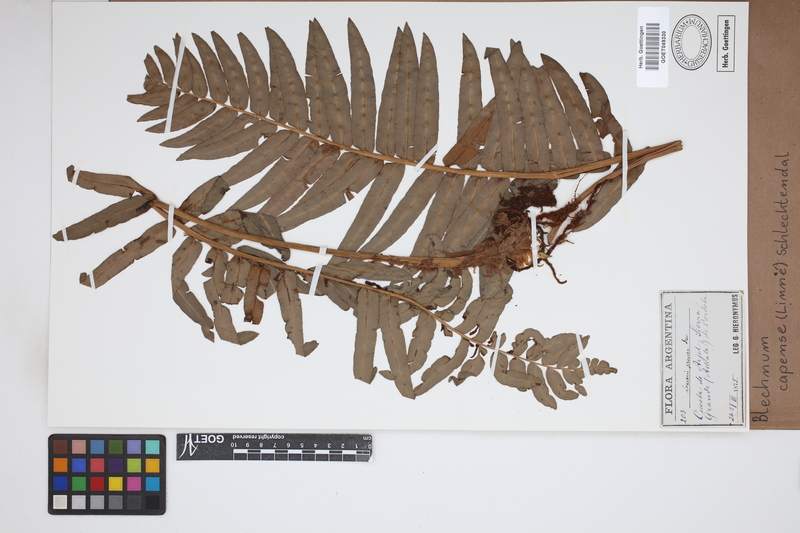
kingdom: Plantae
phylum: Tracheophyta
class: Polypodiopsida
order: Polypodiales
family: Blechnaceae
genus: Parablechnum
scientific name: Parablechnum capense
